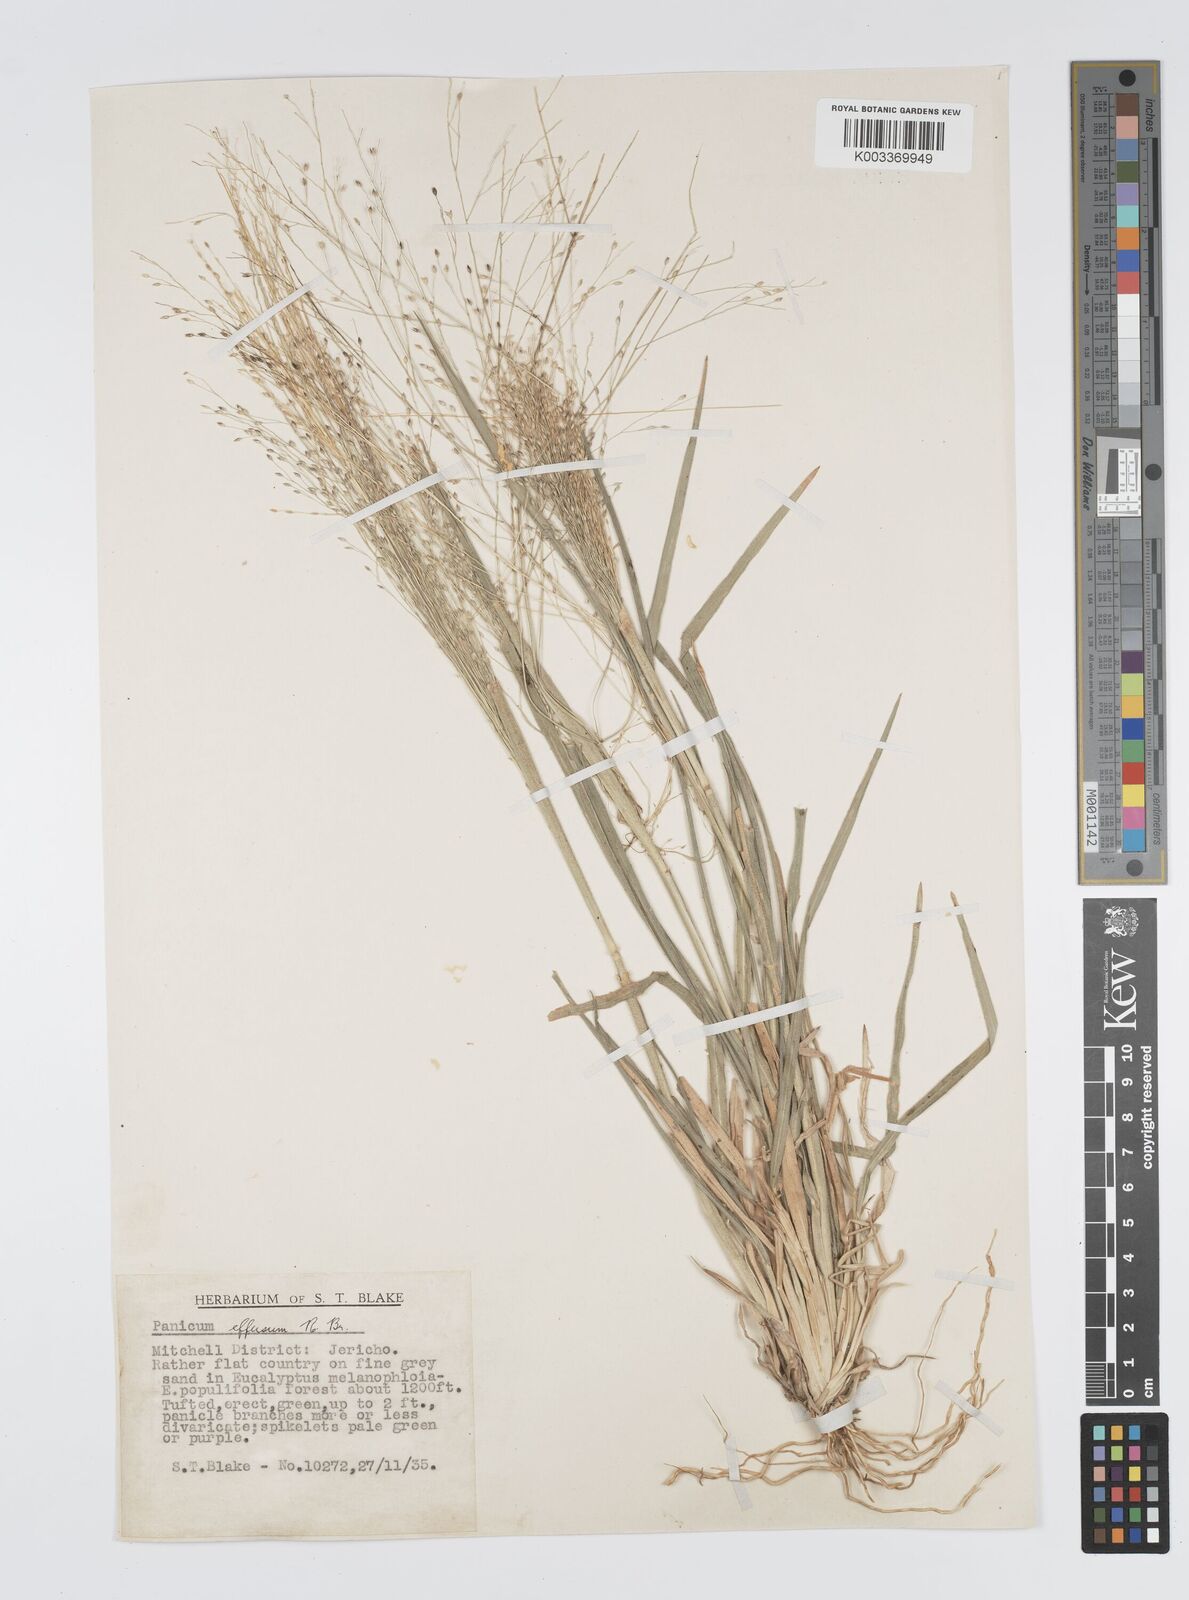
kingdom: Plantae
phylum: Tracheophyta
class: Liliopsida
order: Poales
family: Poaceae
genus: Panicum
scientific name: Panicum effusum
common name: Hairy panic grass
